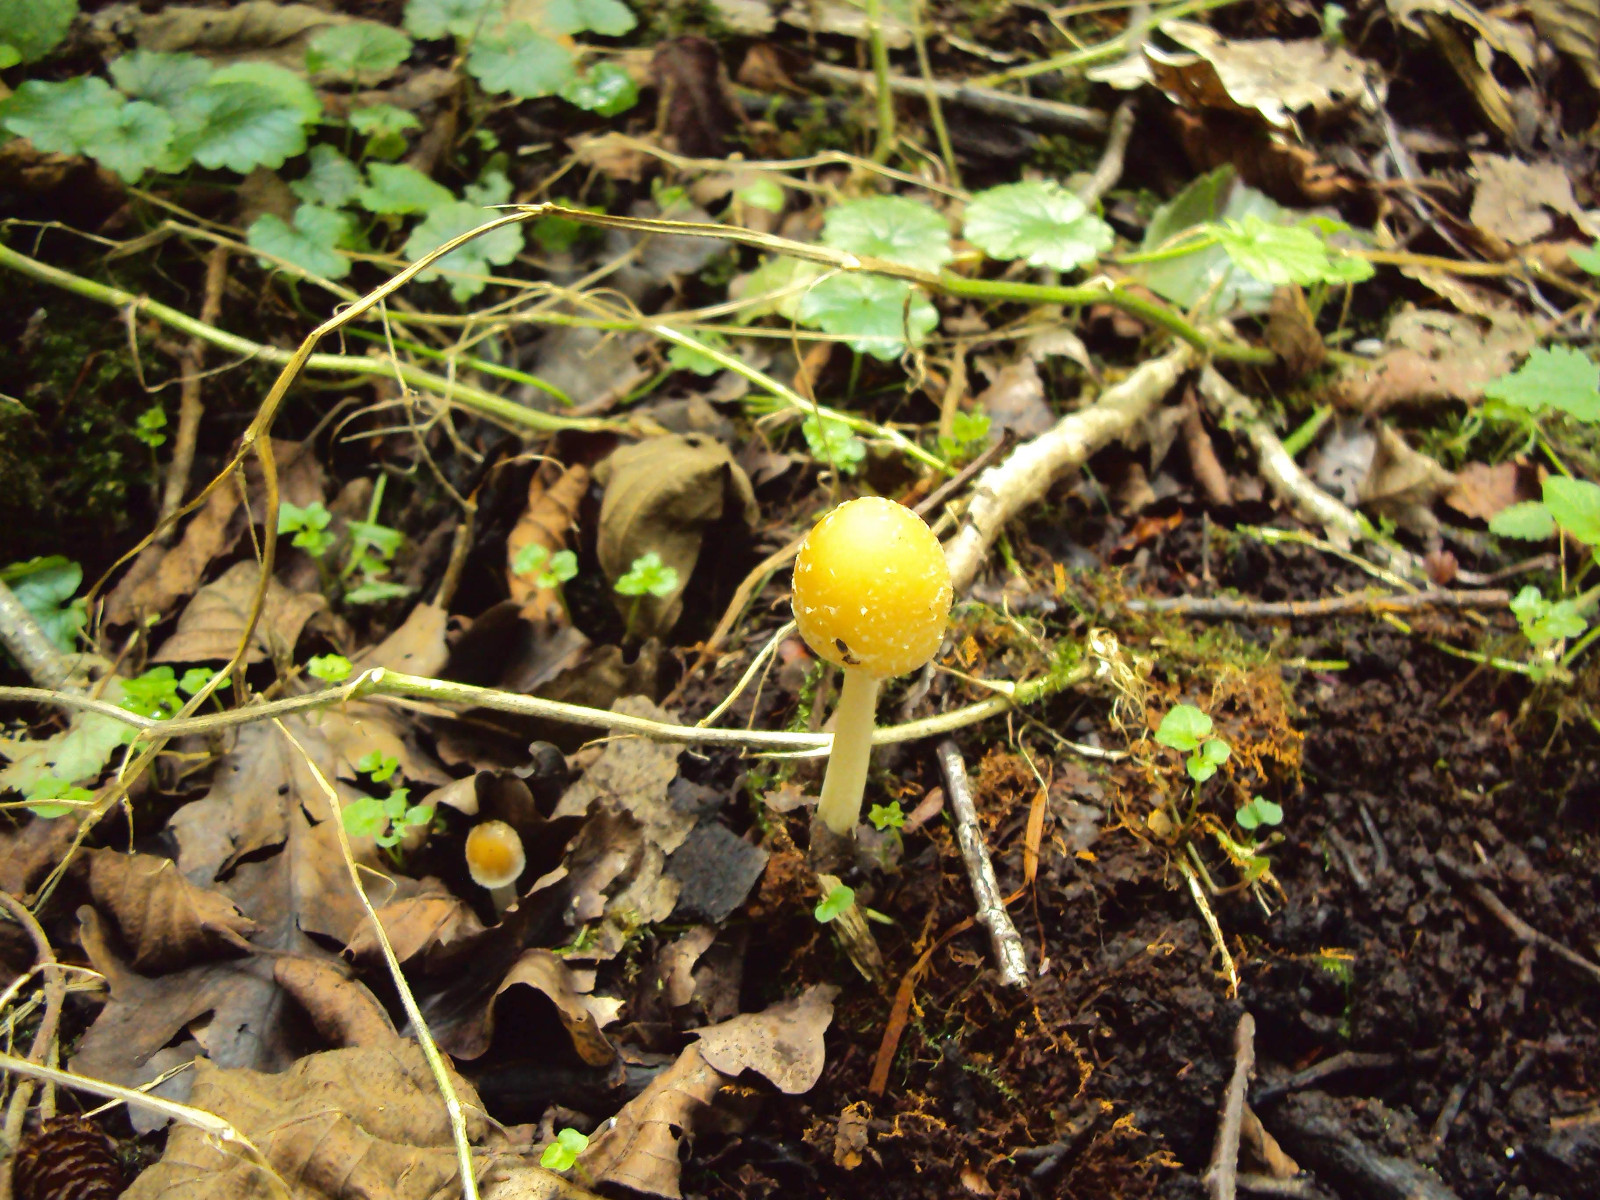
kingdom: Fungi
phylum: Basidiomycota
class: Agaricomycetes
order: Agaricales
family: Psathyrellaceae
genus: Candolleomyces
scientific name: Candolleomyces candolleanus
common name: Candolles mørkhat
